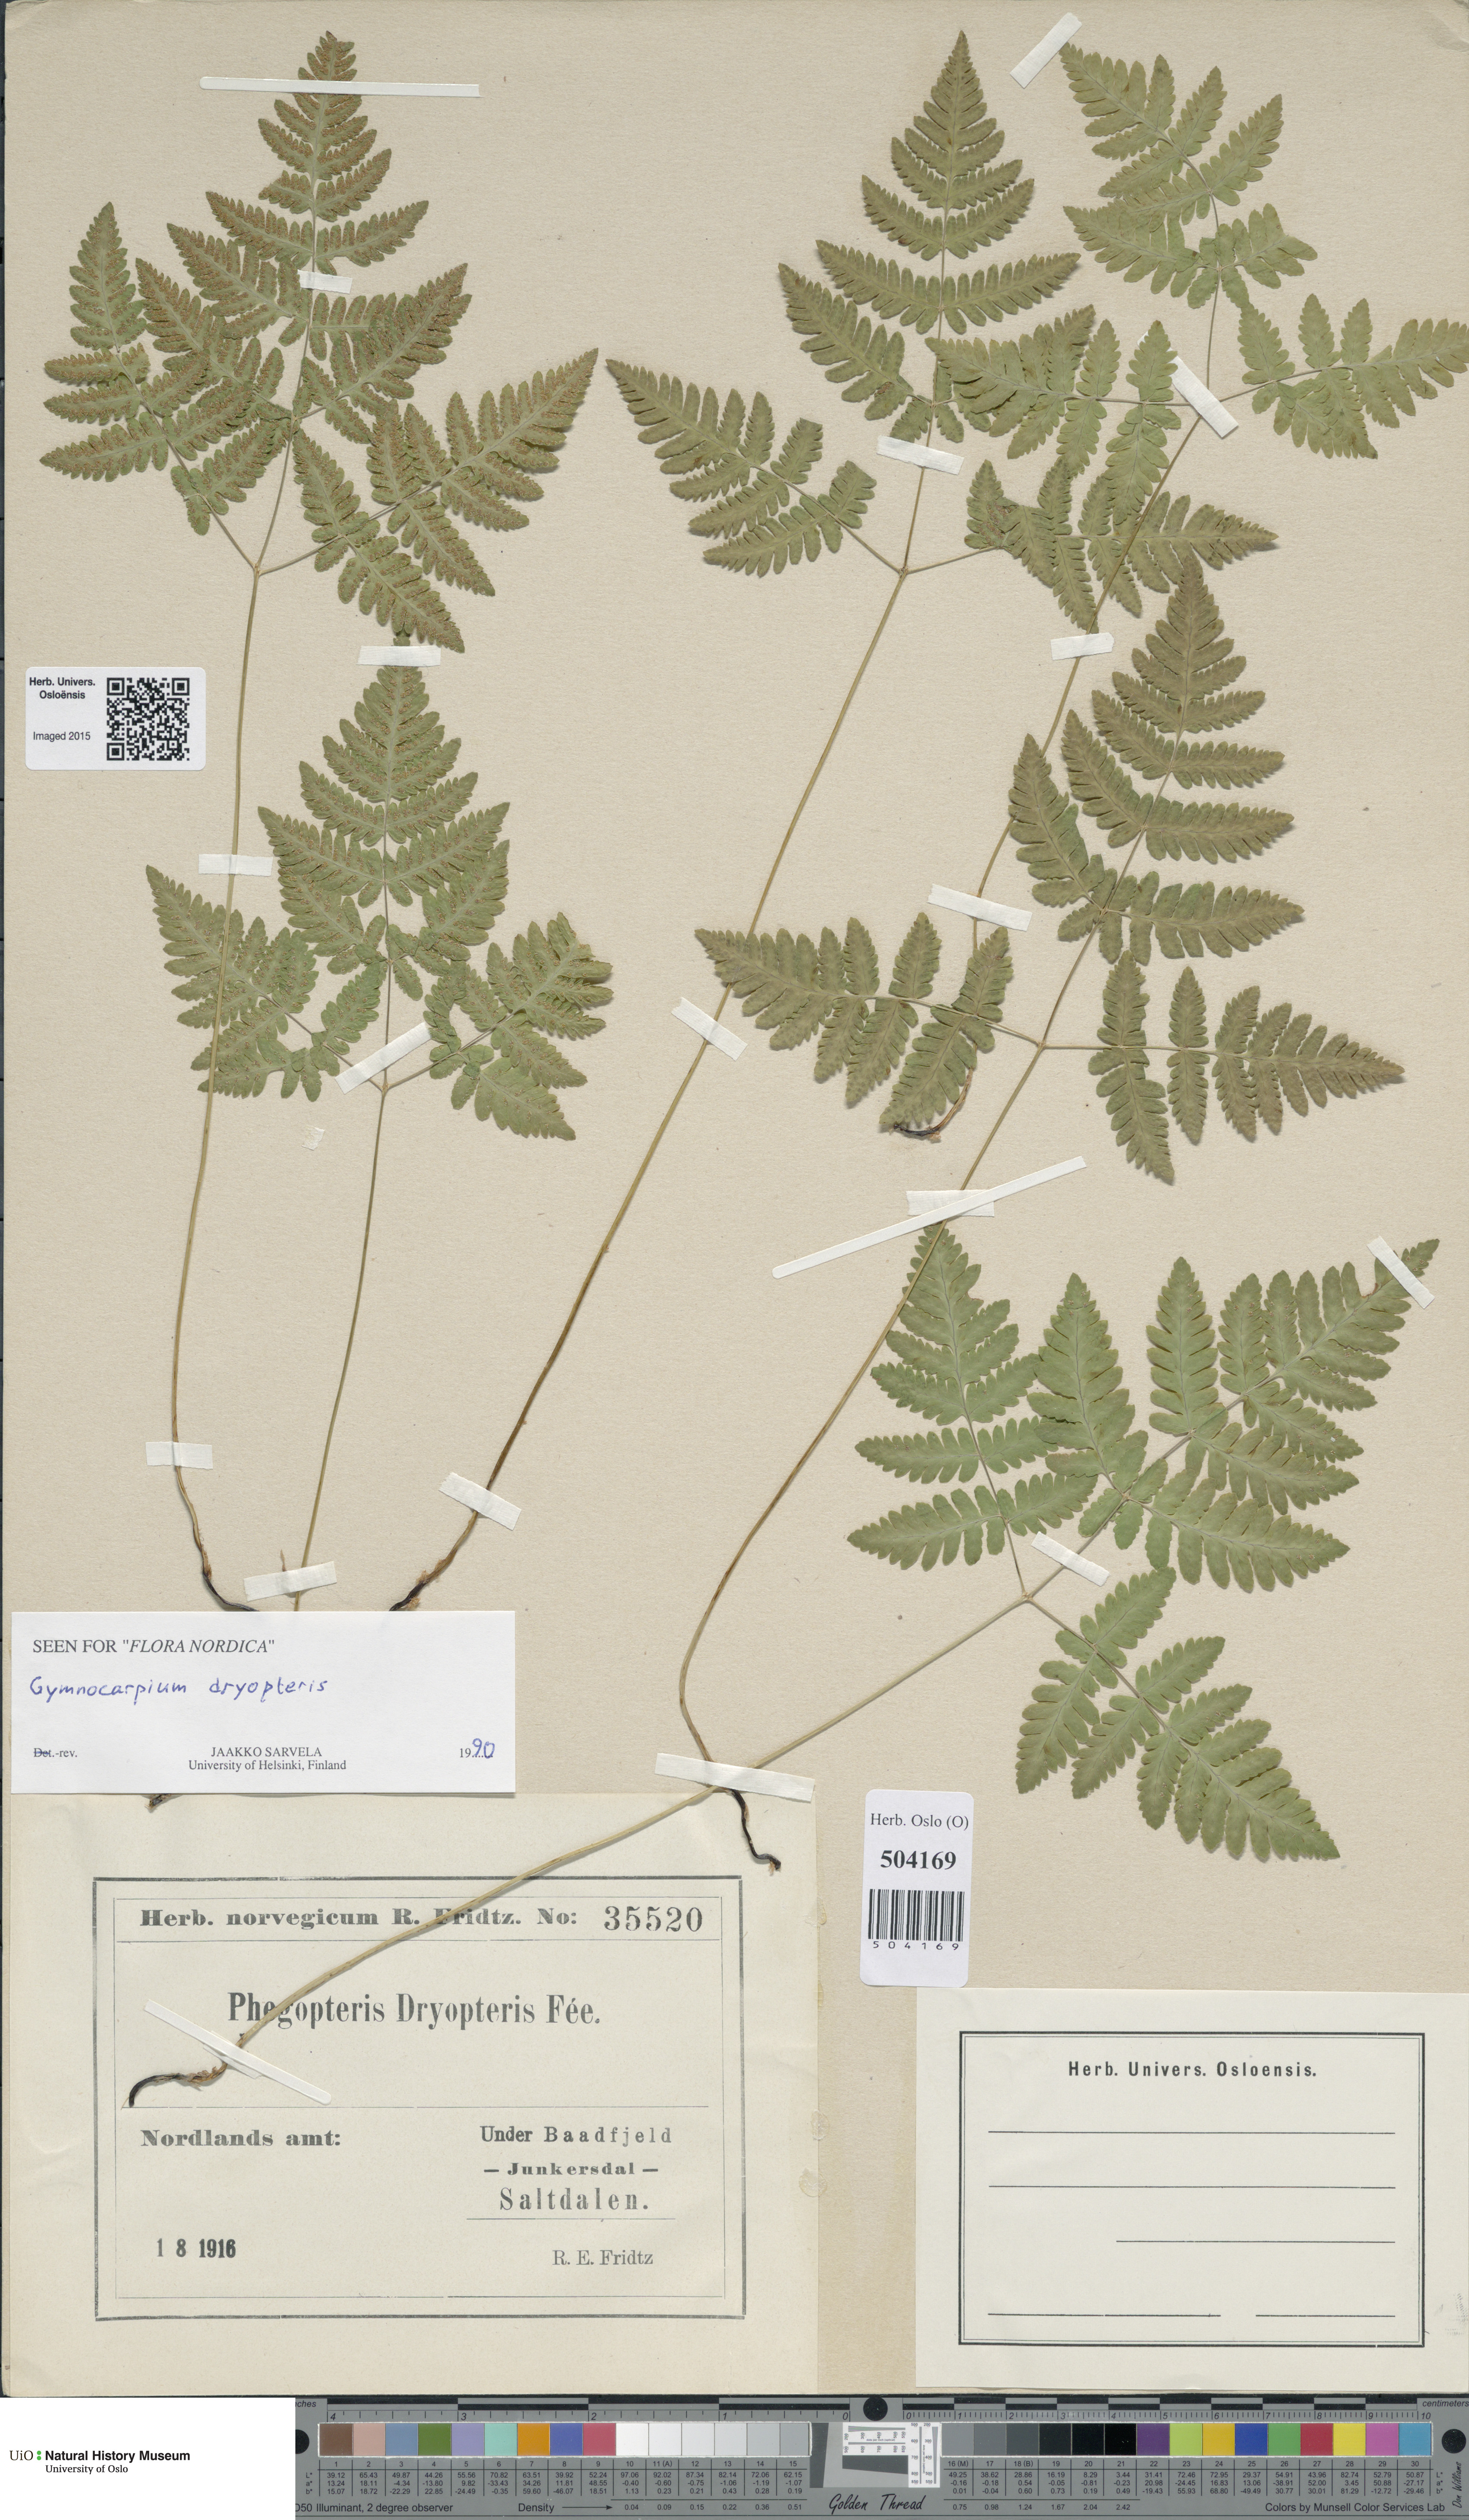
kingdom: Plantae
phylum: Tracheophyta
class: Polypodiopsida
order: Polypodiales
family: Cystopteridaceae
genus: Gymnocarpium
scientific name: Gymnocarpium dryopteris
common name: Oak fern
